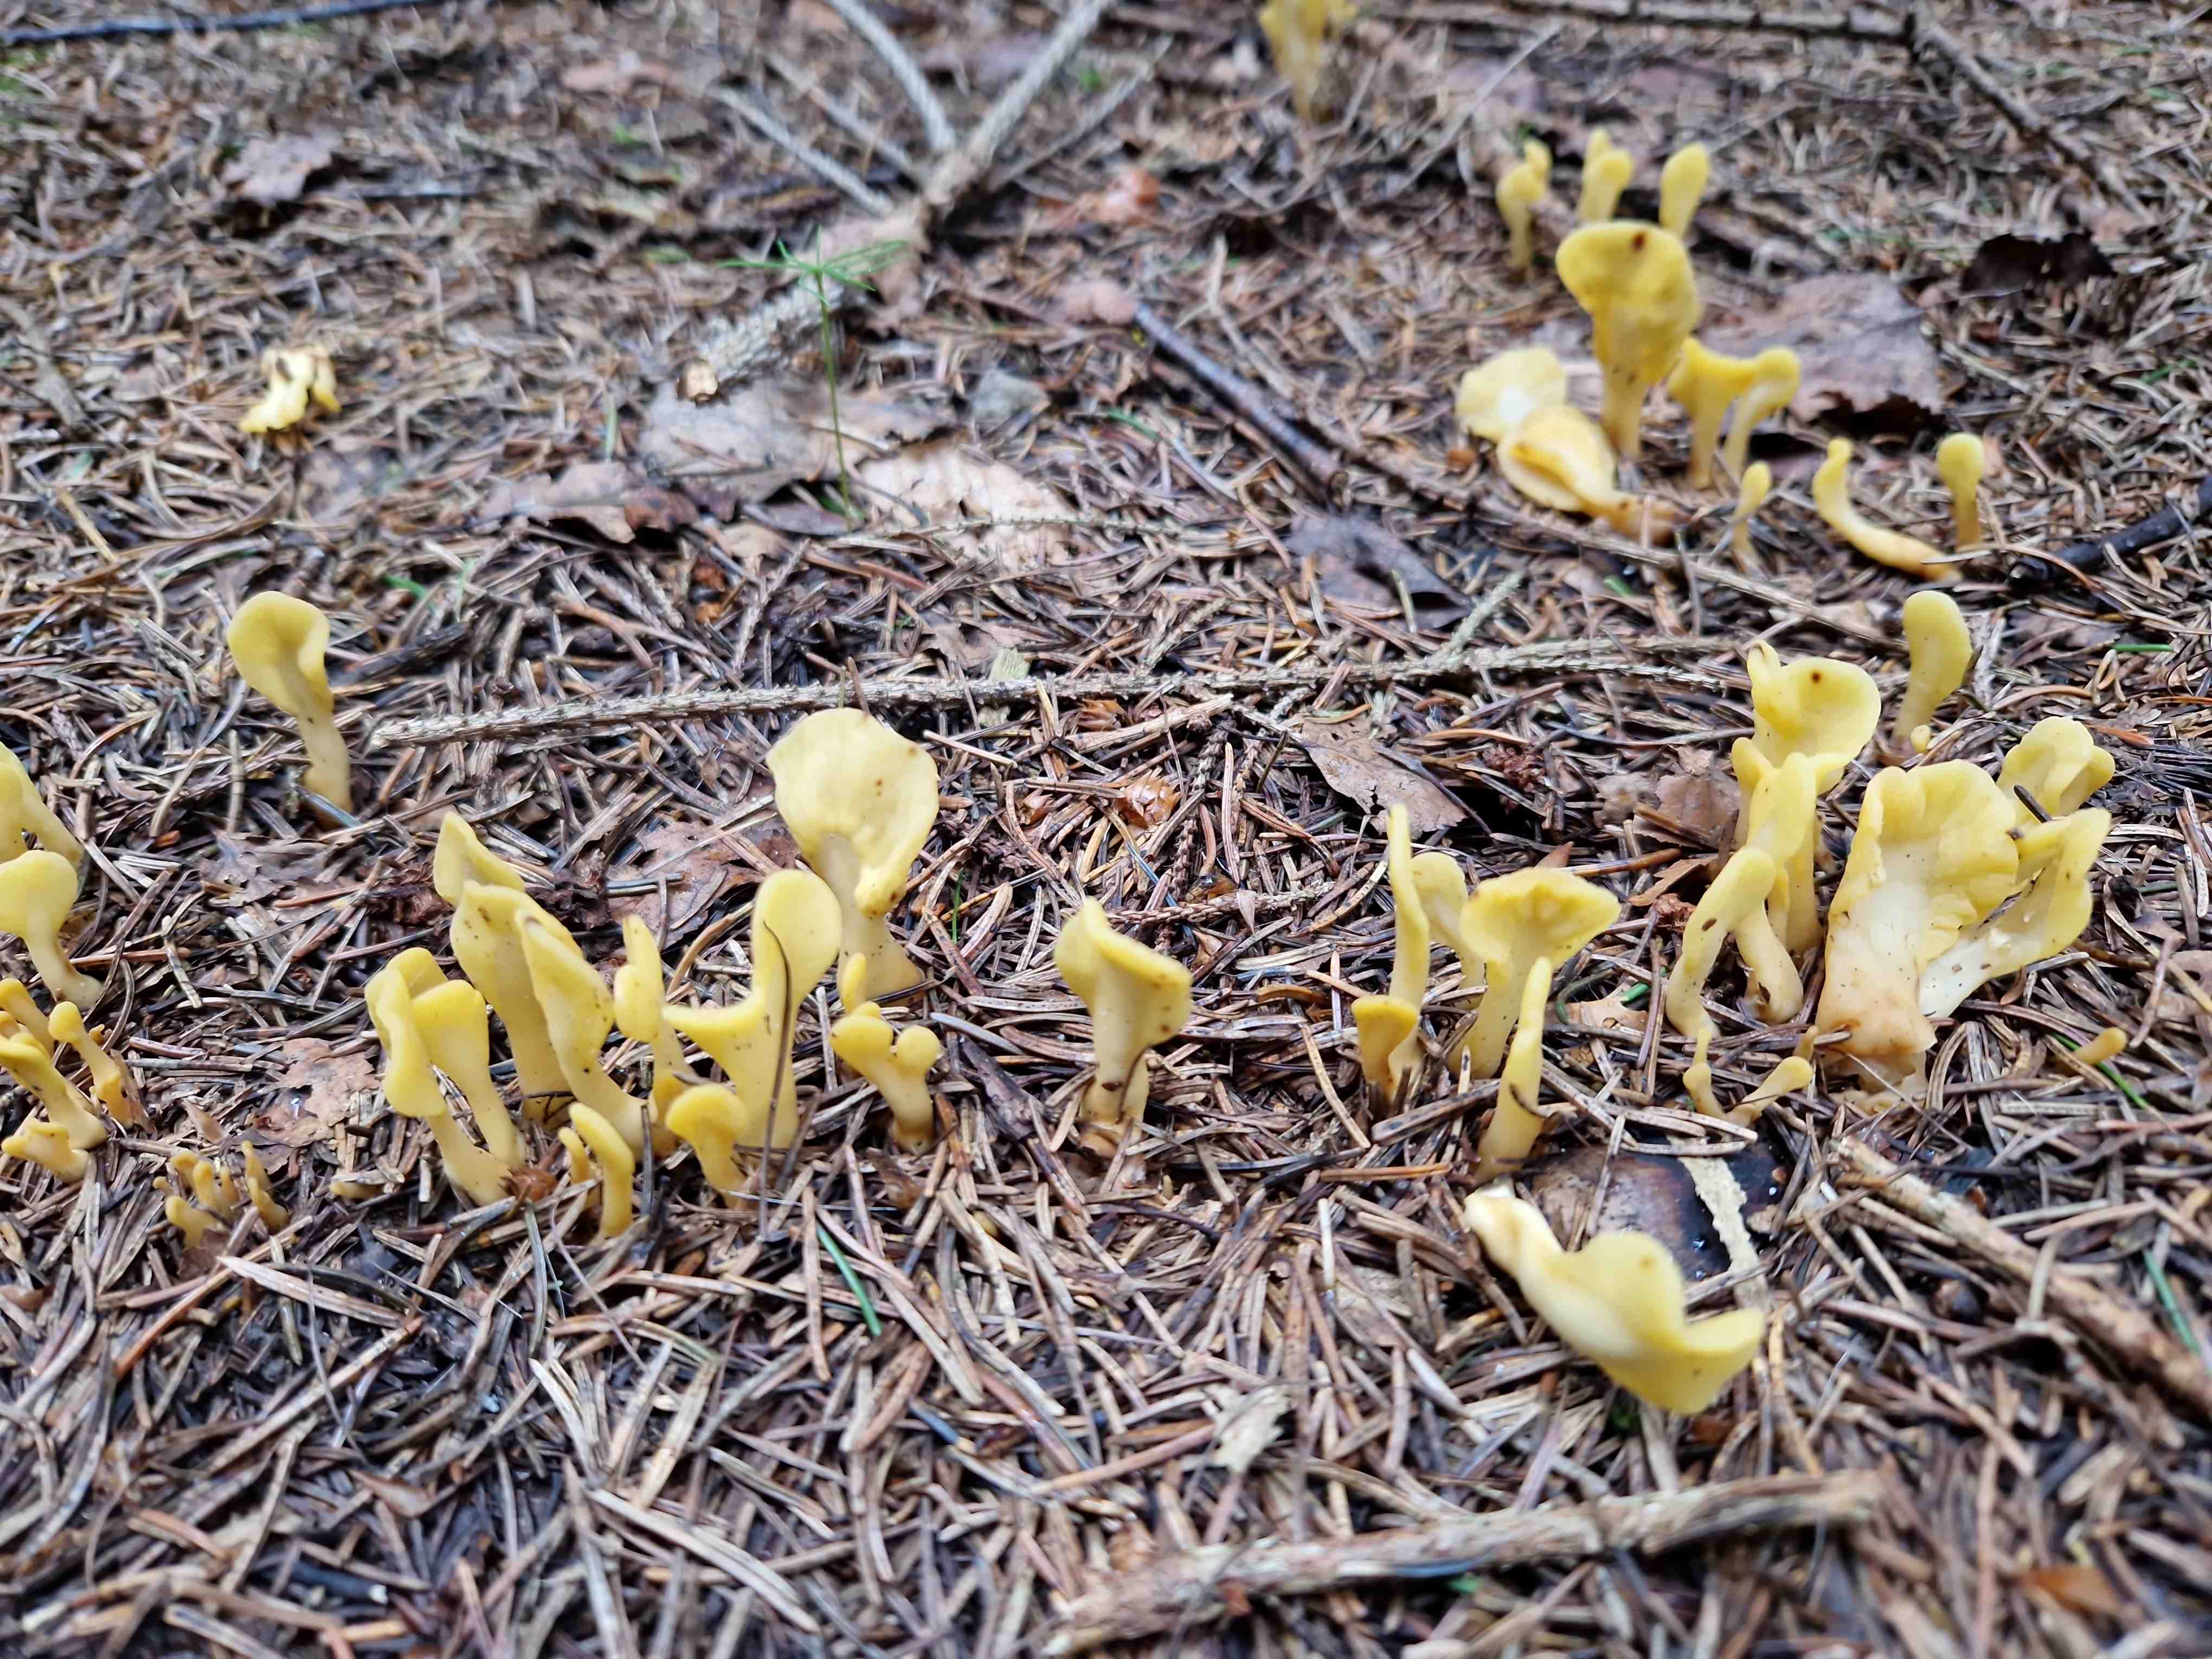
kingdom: Fungi
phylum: Ascomycota
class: Leotiomycetes
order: Rhytismatales
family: Cudoniaceae
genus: Spathularia
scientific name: Spathularia flavida
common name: gul spatelsvamp
